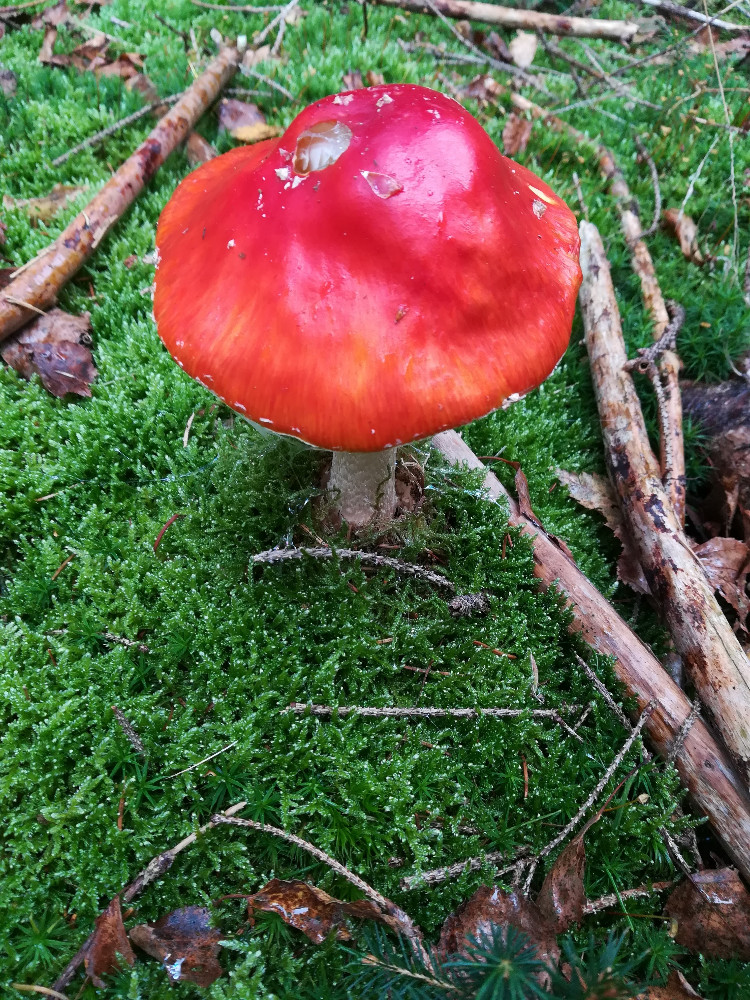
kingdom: Fungi
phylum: Basidiomycota
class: Agaricomycetes
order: Agaricales
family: Amanitaceae
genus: Amanita
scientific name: Amanita muscaria
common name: rød fluesvamp
